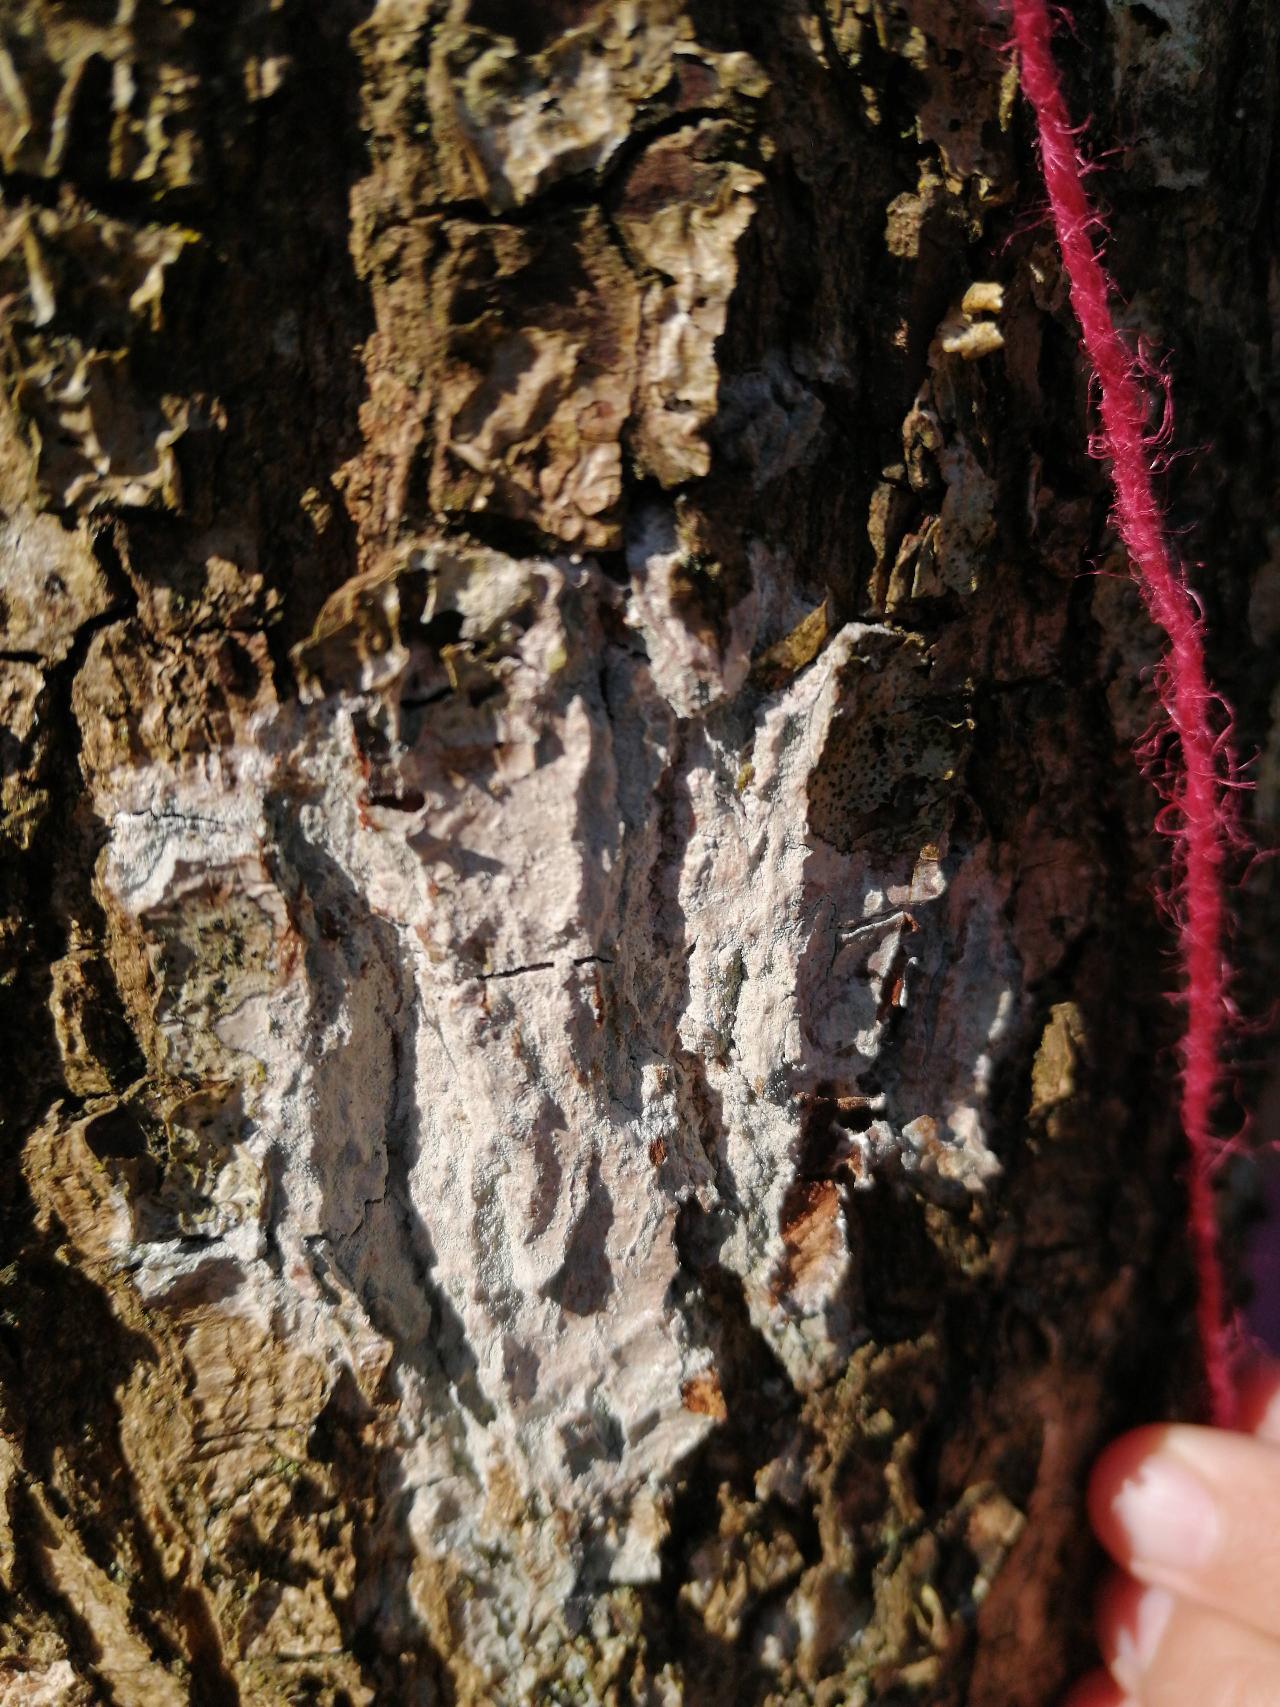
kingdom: Fungi
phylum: Ascomycota
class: Lecanoromycetes
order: Ostropales
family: Phlyctidaceae
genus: Phlyctis
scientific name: Phlyctis argena
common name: Almindelig sølvlav
